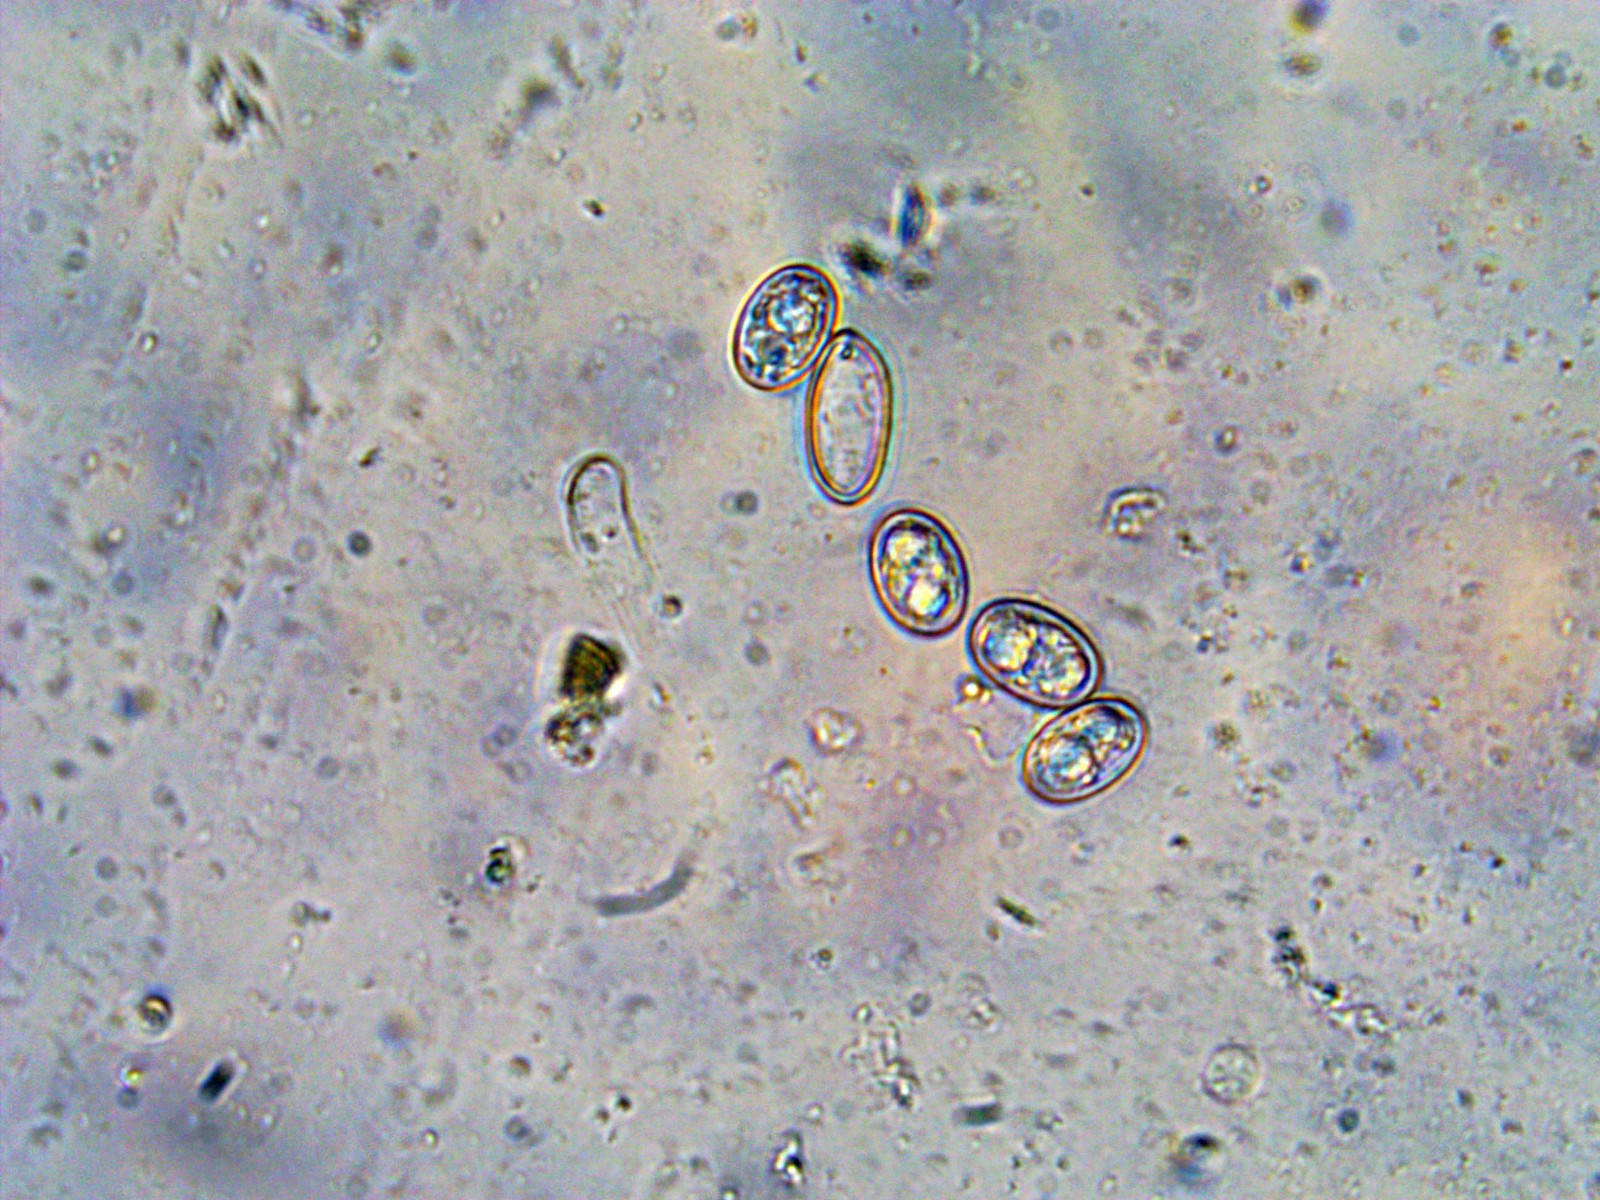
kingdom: Fungi
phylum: Ascomycota
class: Pezizomycetes
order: Pezizales
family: Pezizaceae
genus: Adelphella
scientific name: Adelphella babingtonii
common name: almindelig bækbæger
